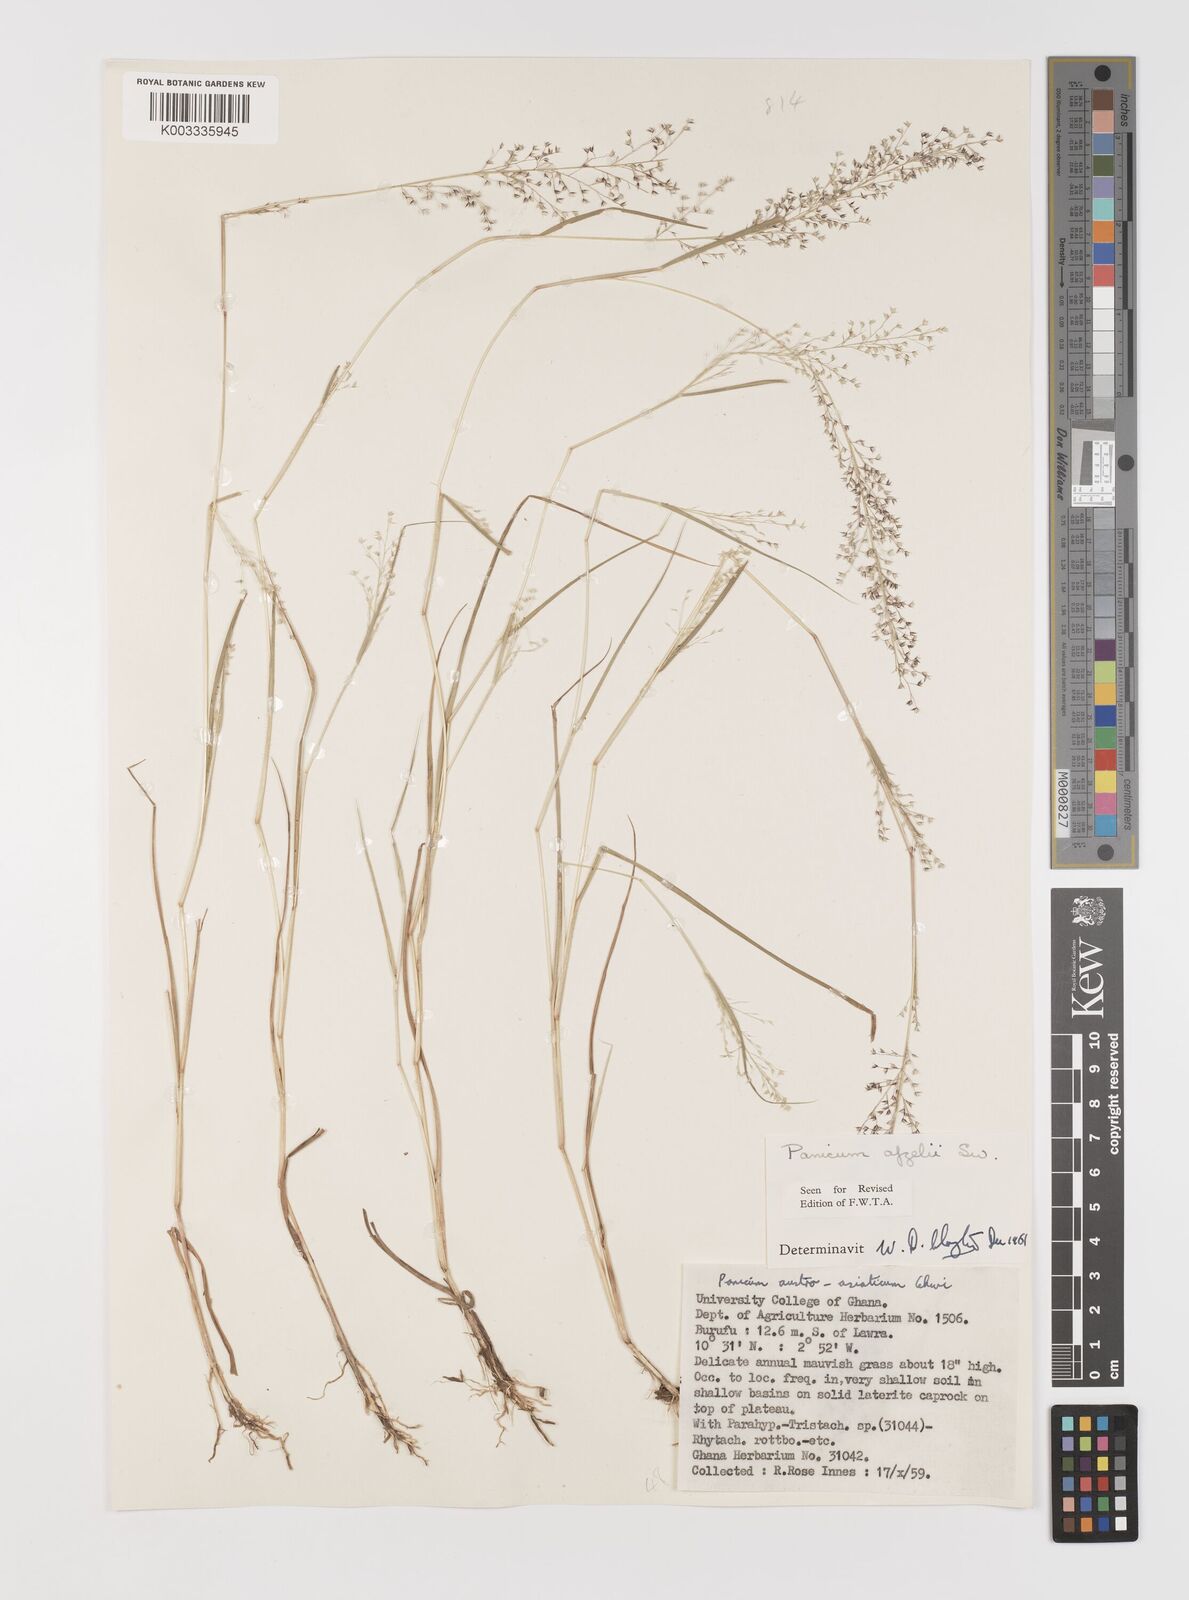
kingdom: Plantae
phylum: Tracheophyta
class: Liliopsida
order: Poales
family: Poaceae
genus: Panicum
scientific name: Panicum afzelii
